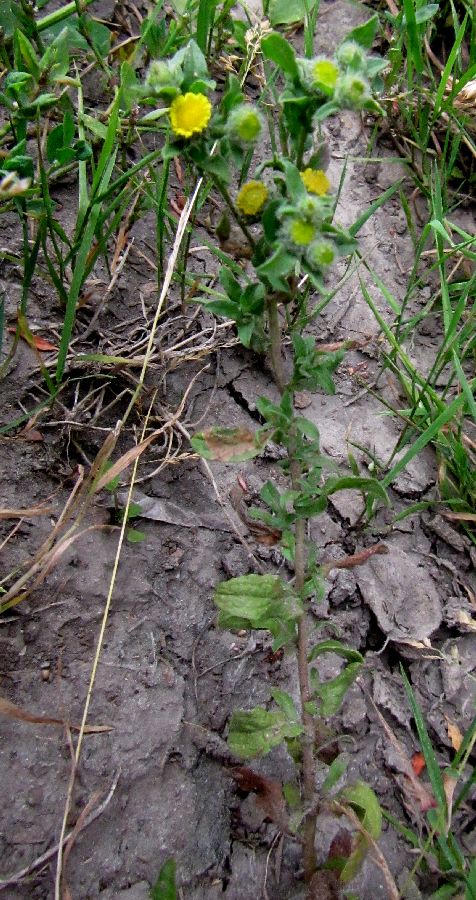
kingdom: Plantae
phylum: Tracheophyta
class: Magnoliopsida
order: Asterales
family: Asteraceae
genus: Pulicaria
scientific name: Pulicaria vulgaris
